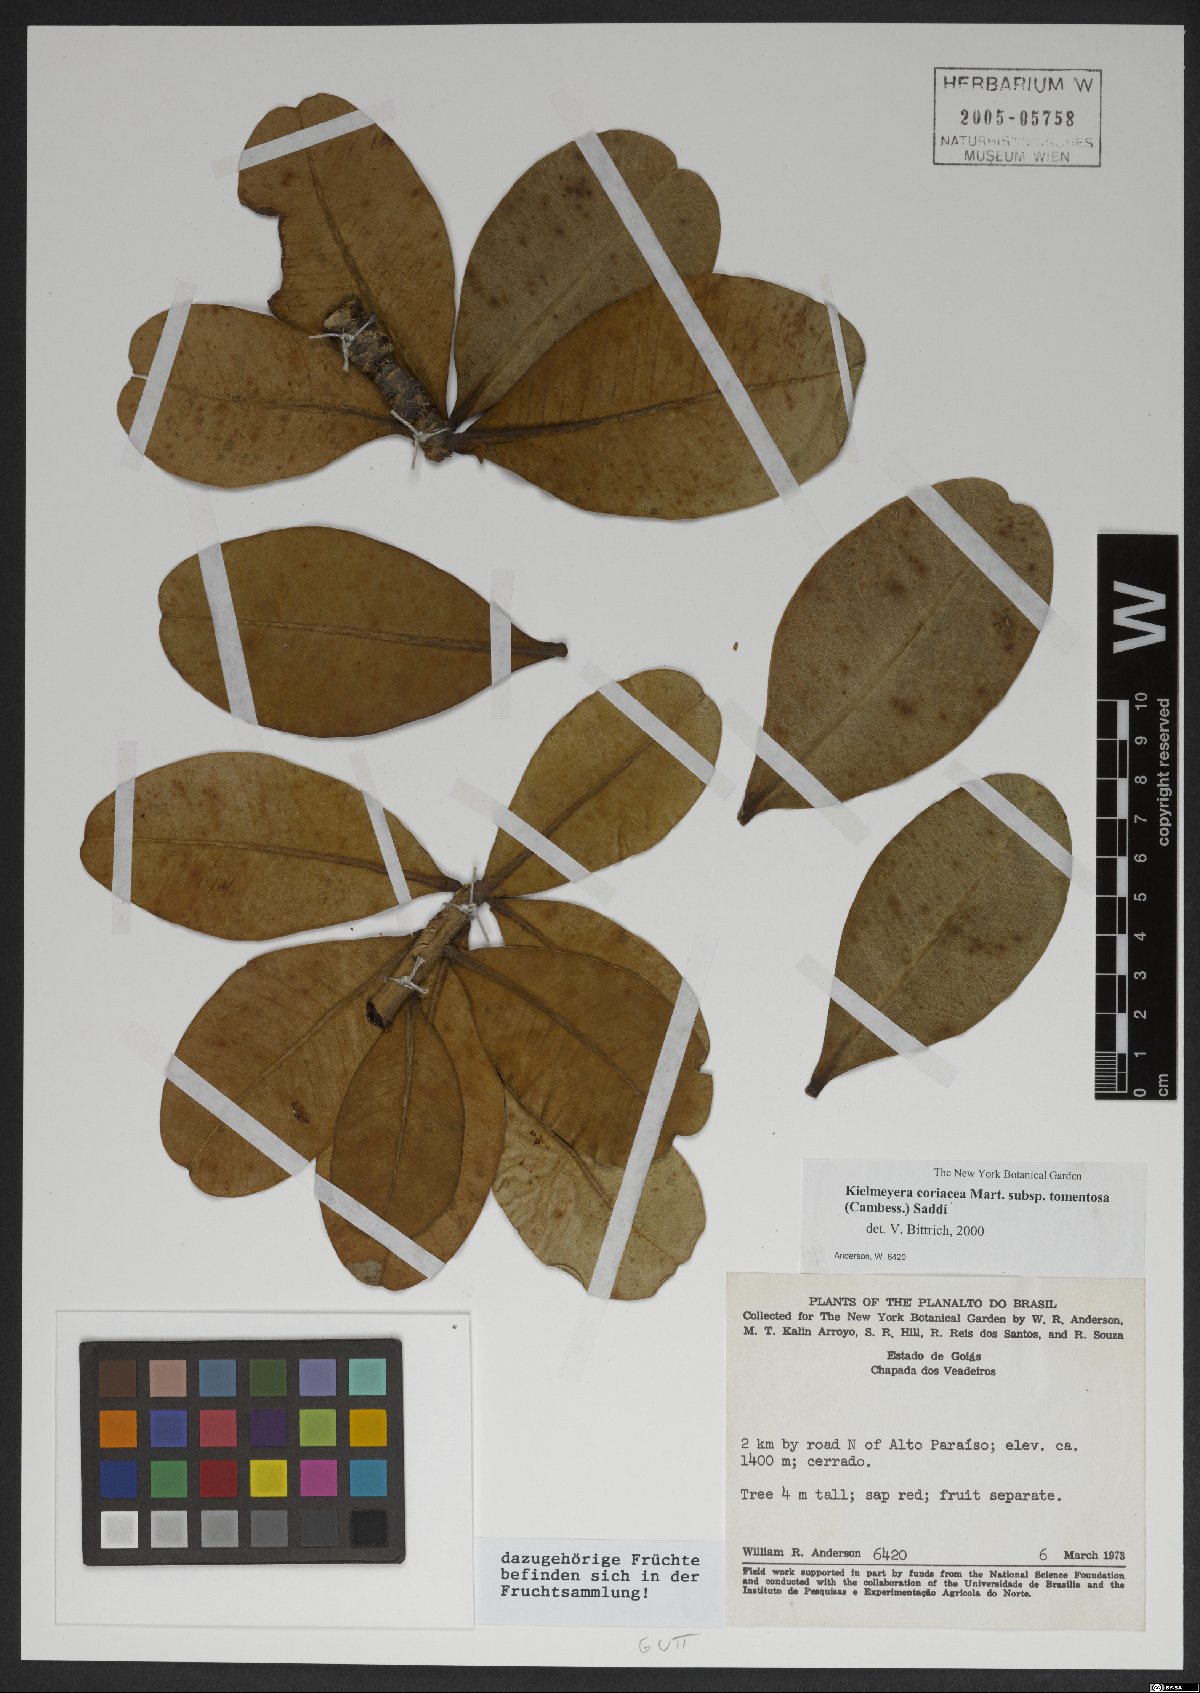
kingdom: Plantae
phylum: Tracheophyta
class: Magnoliopsida
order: Malpighiales
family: Calophyllaceae
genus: Kielmeyera
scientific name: Kielmeyera tomentosa
